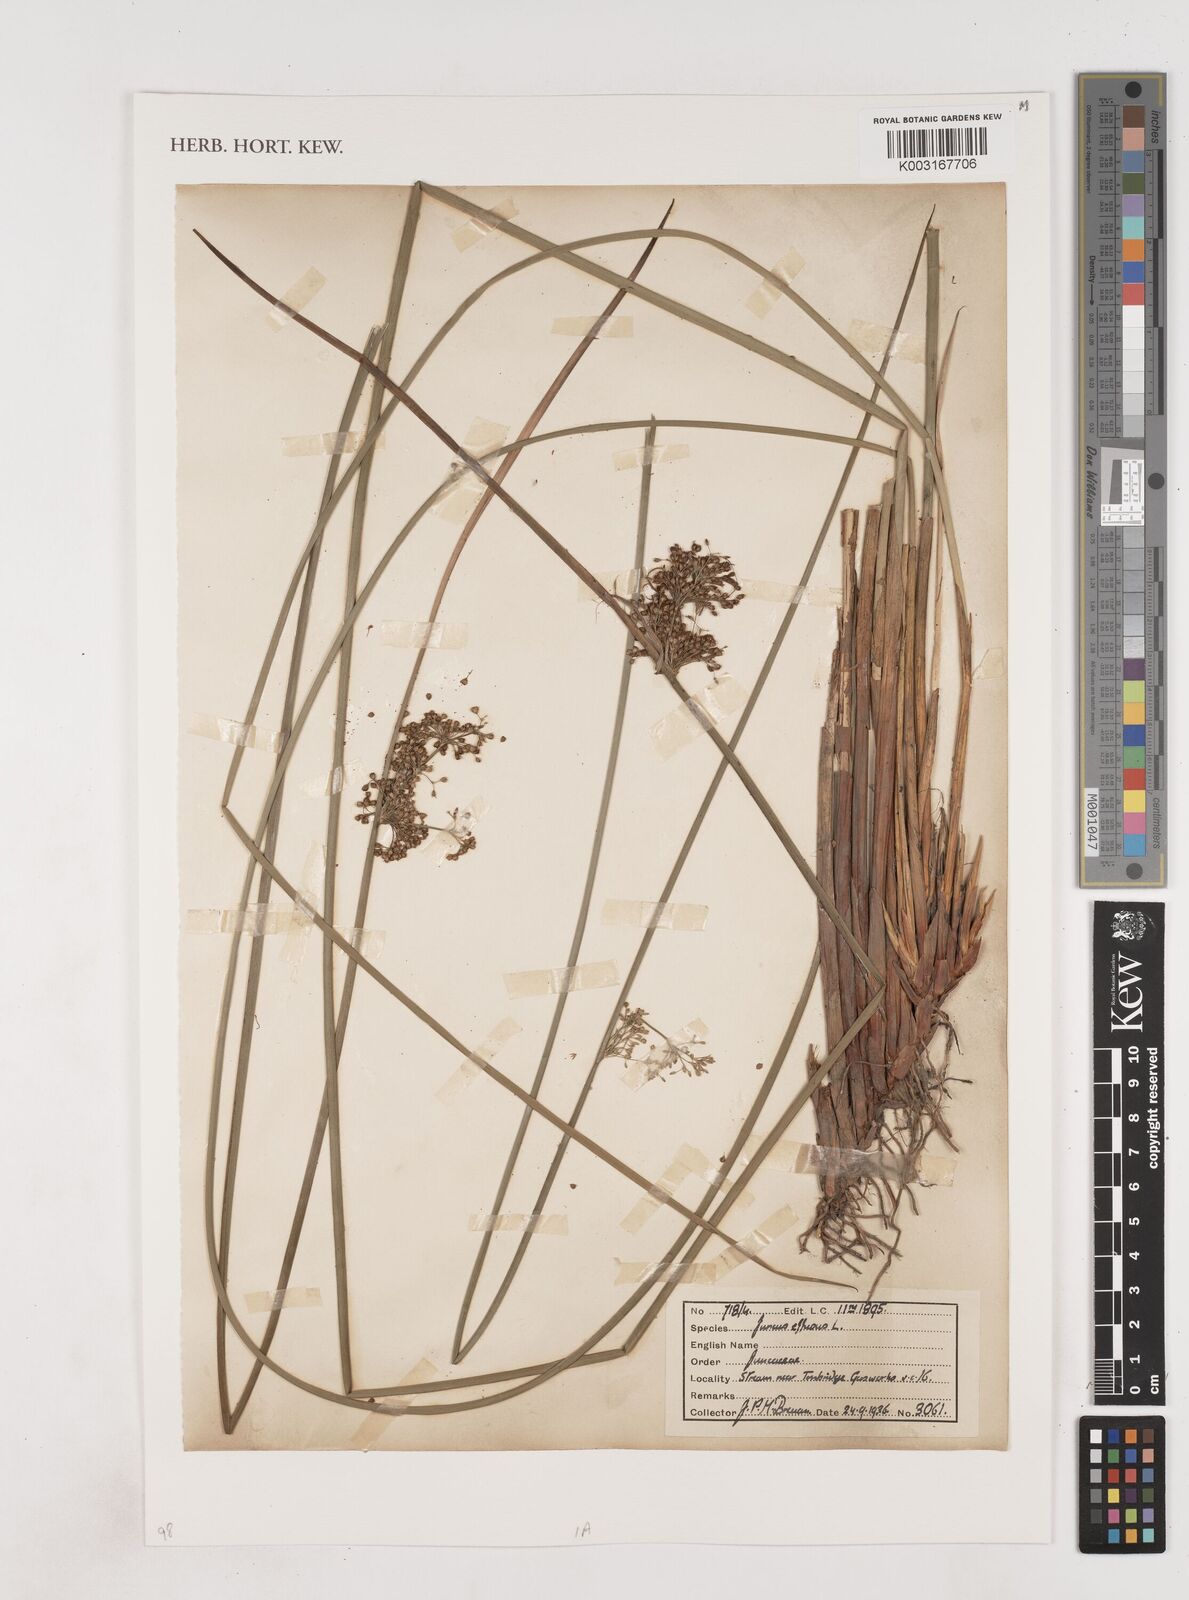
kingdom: Plantae
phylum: Tracheophyta
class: Liliopsida
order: Poales
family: Juncaceae
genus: Juncus
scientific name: Juncus effusus
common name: Soft rush
